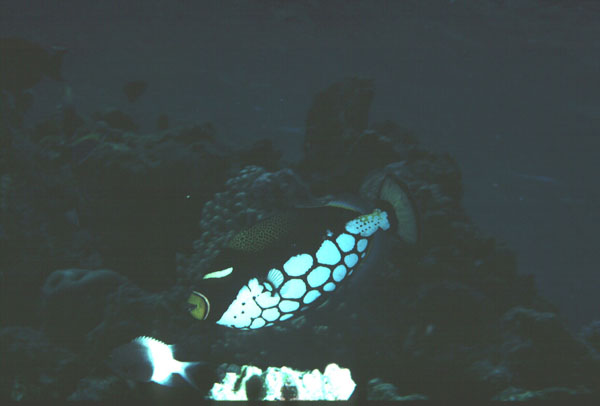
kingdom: Animalia
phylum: Chordata
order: Tetraodontiformes
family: Balistidae
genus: Balistoides
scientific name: Balistoides conspicillum
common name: Clown triggerfish
